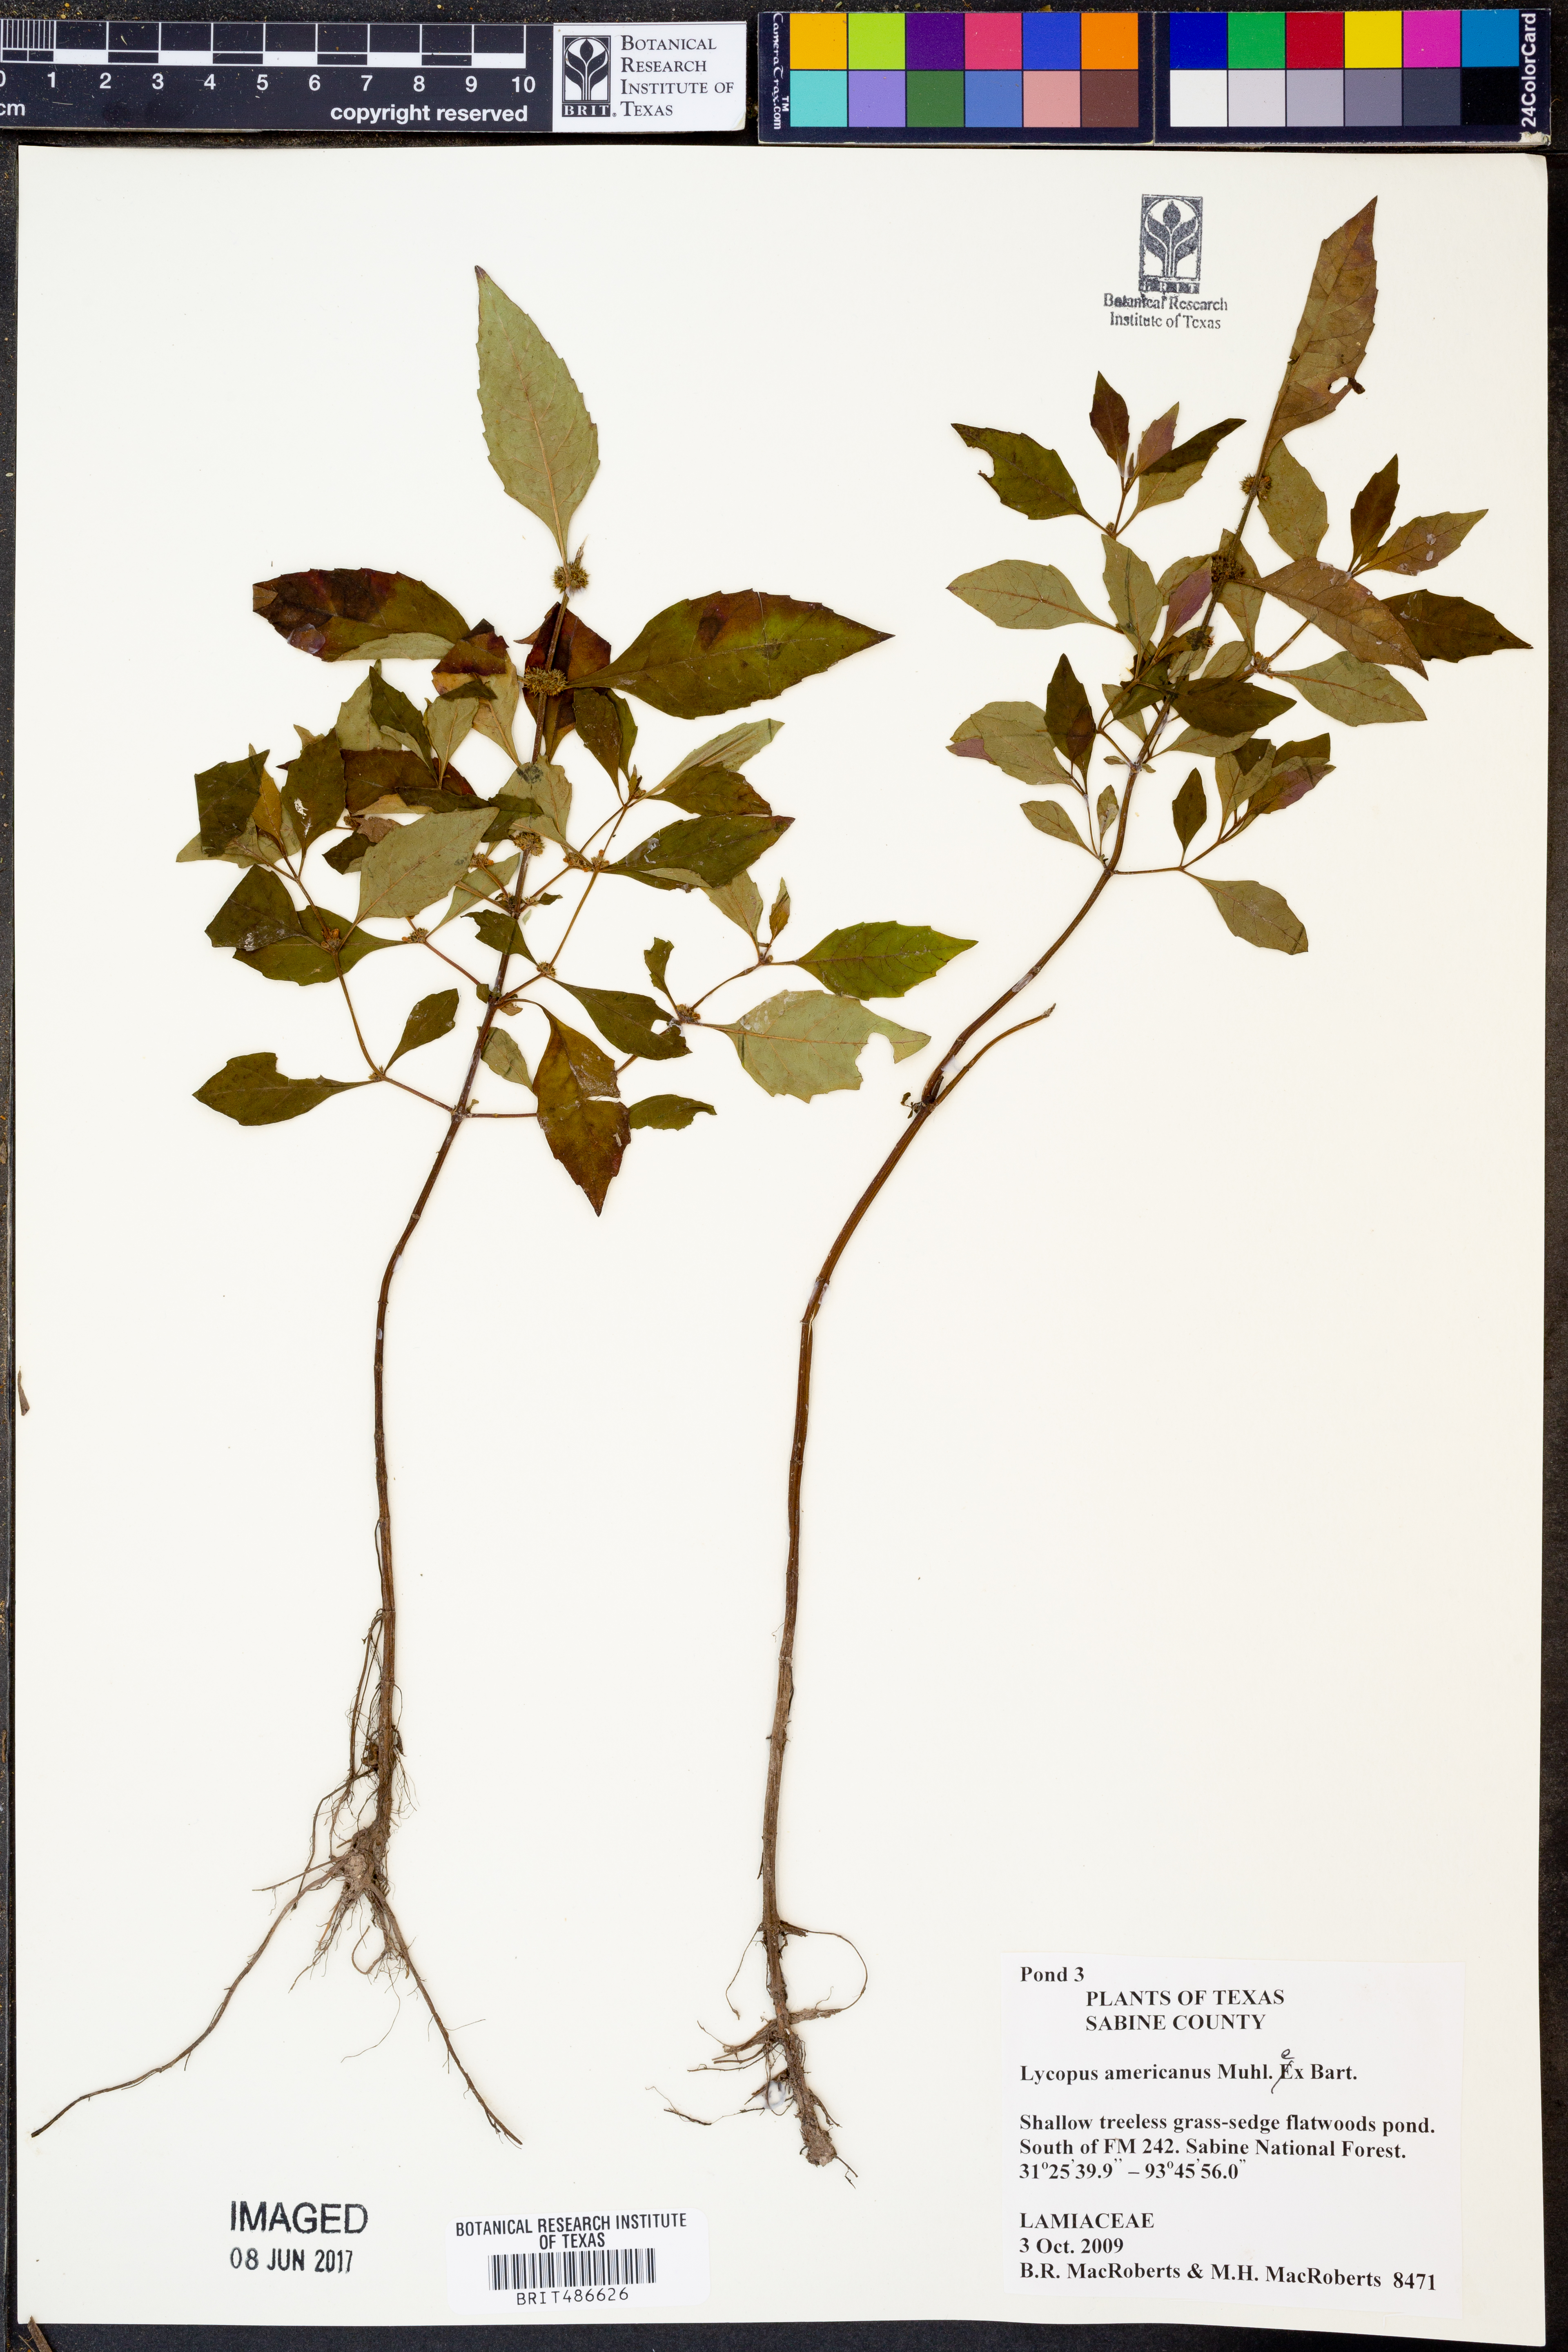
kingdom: Plantae
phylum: Tracheophyta
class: Magnoliopsida
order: Lamiales
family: Lamiaceae
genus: Lycopus
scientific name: Lycopus americanus
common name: American bugleweed
